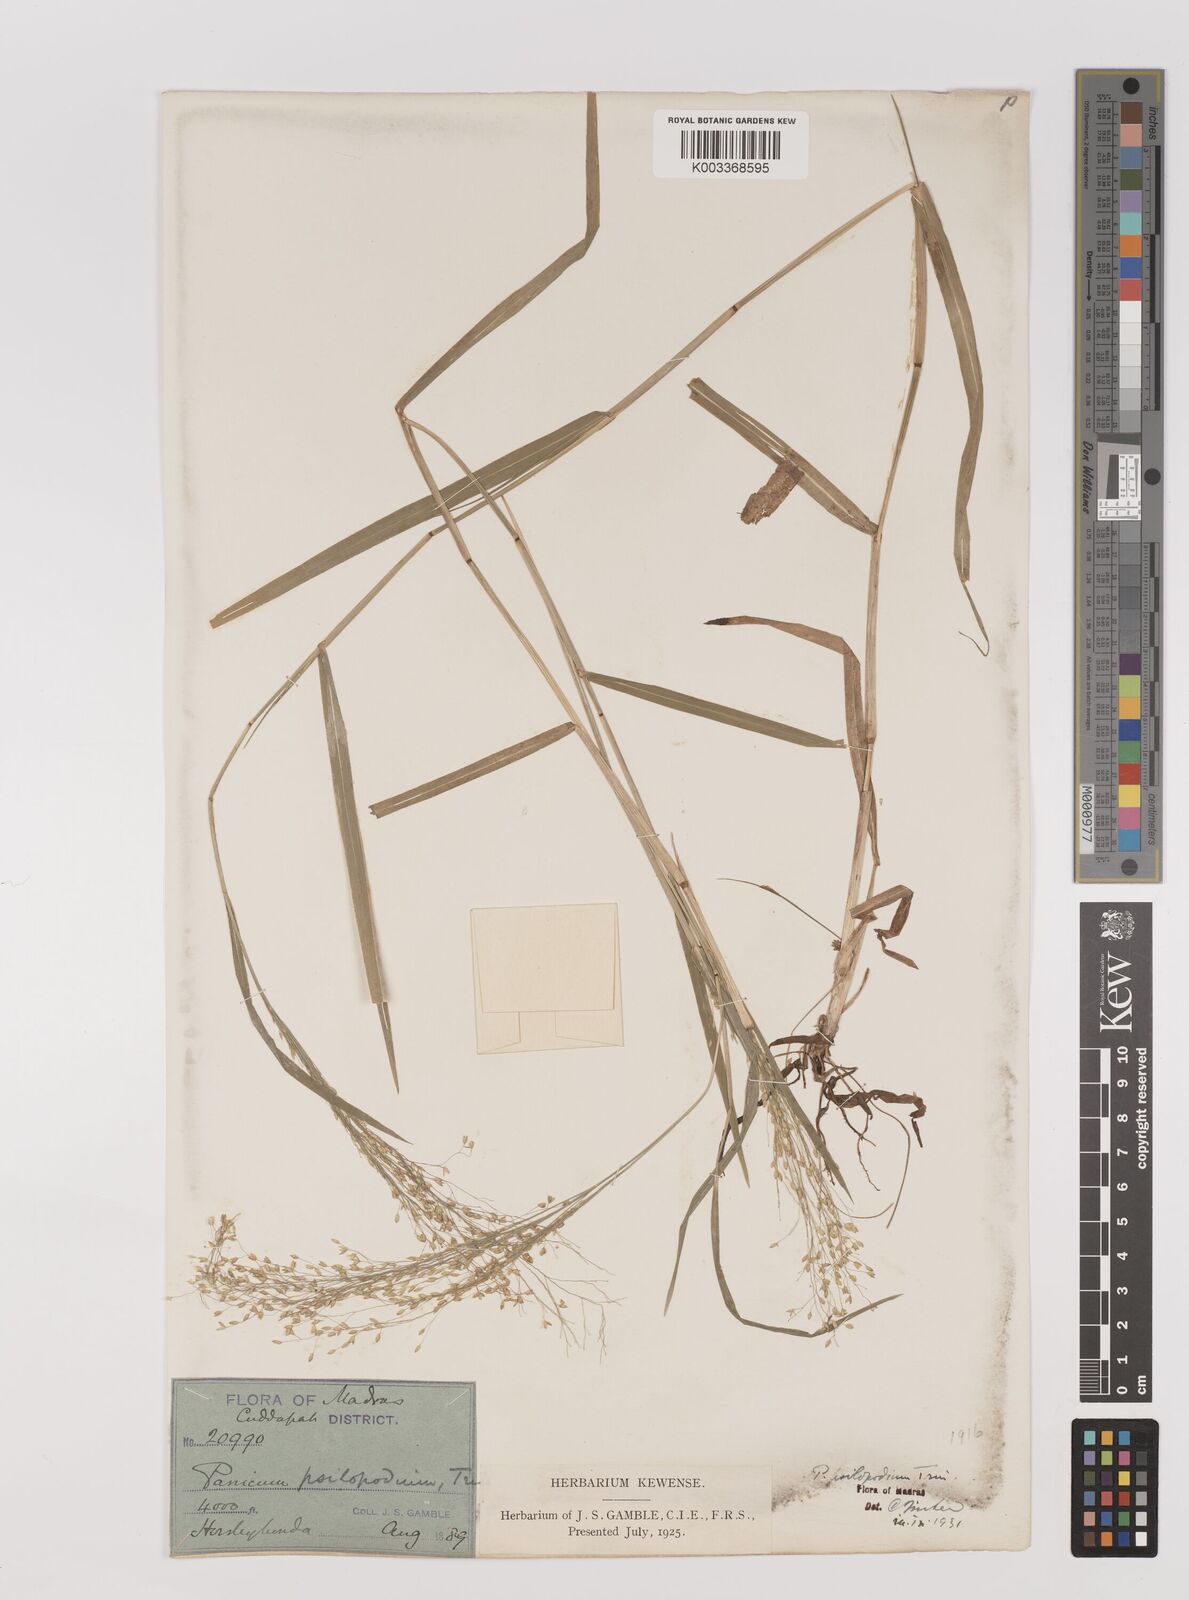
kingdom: Plantae
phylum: Tracheophyta
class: Liliopsida
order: Poales
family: Poaceae
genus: Panicum
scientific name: Panicum sumatrense
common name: Little millet
